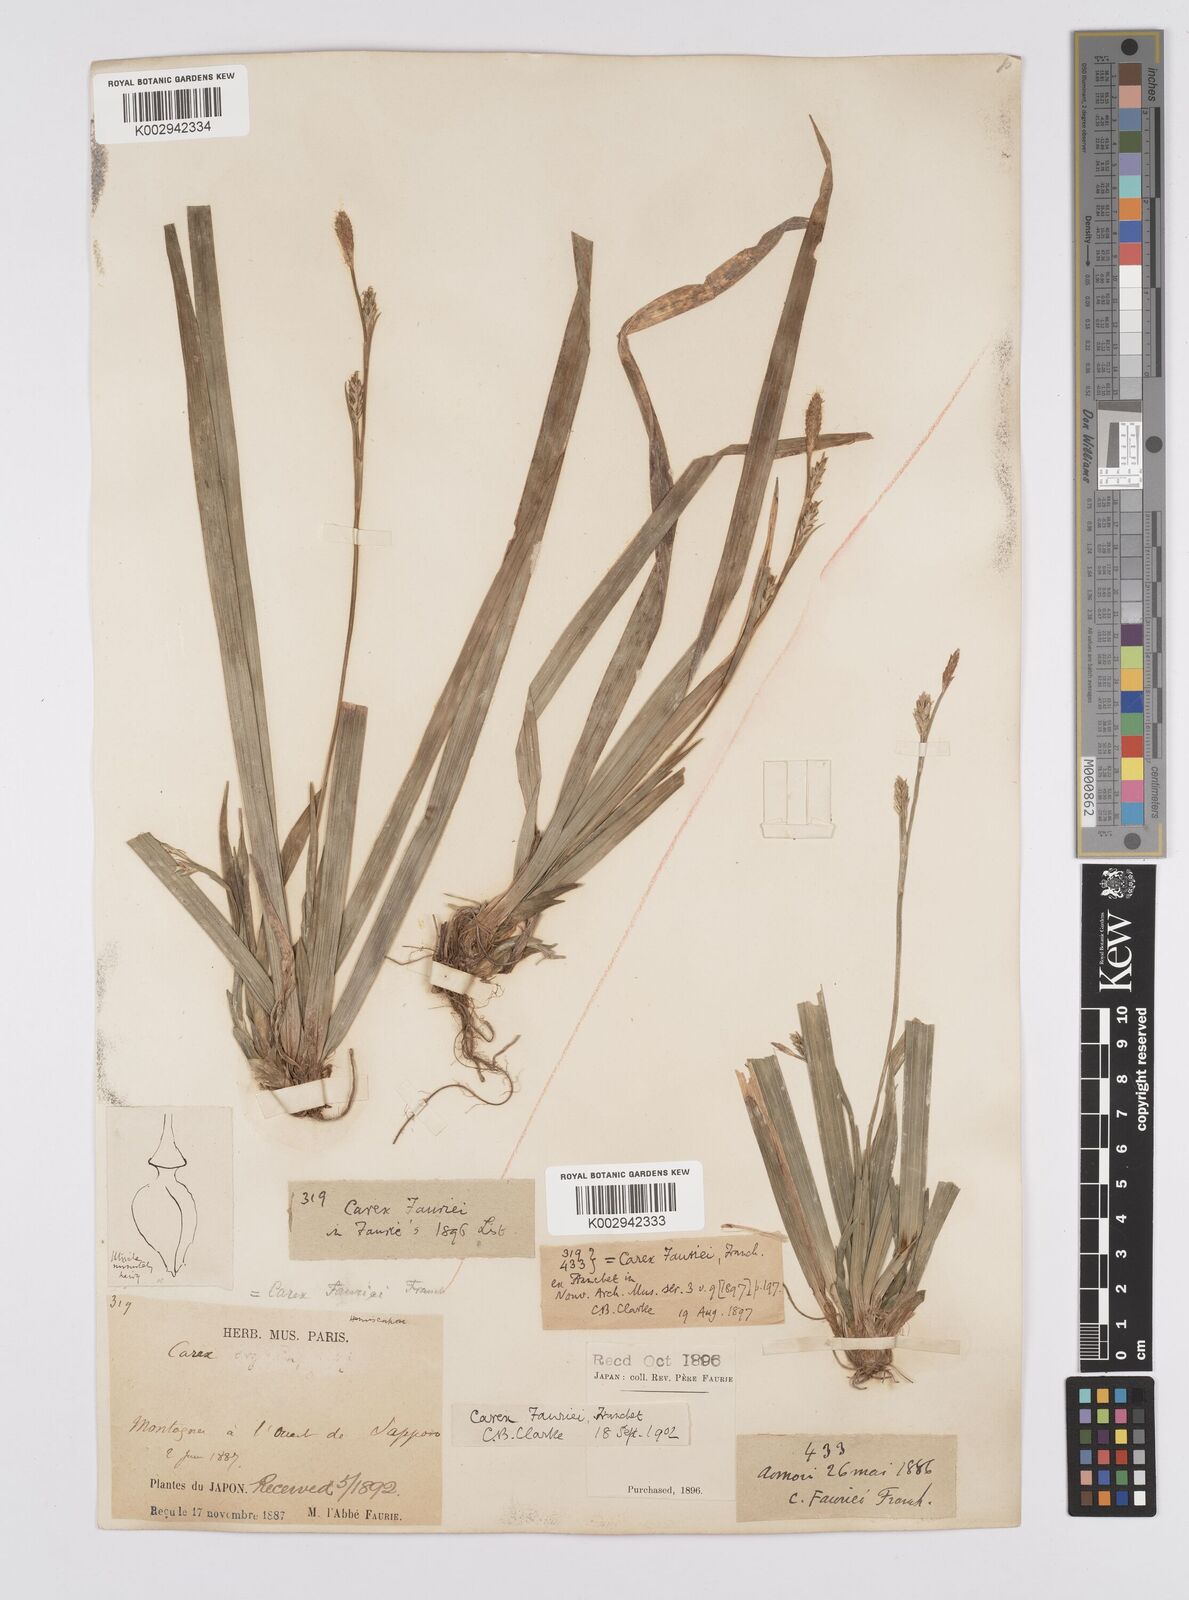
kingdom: Plantae
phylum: Tracheophyta
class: Liliopsida
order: Poales
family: Cyperaceae
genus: Carex
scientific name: Carex phacota
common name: Lakeshore sedge
